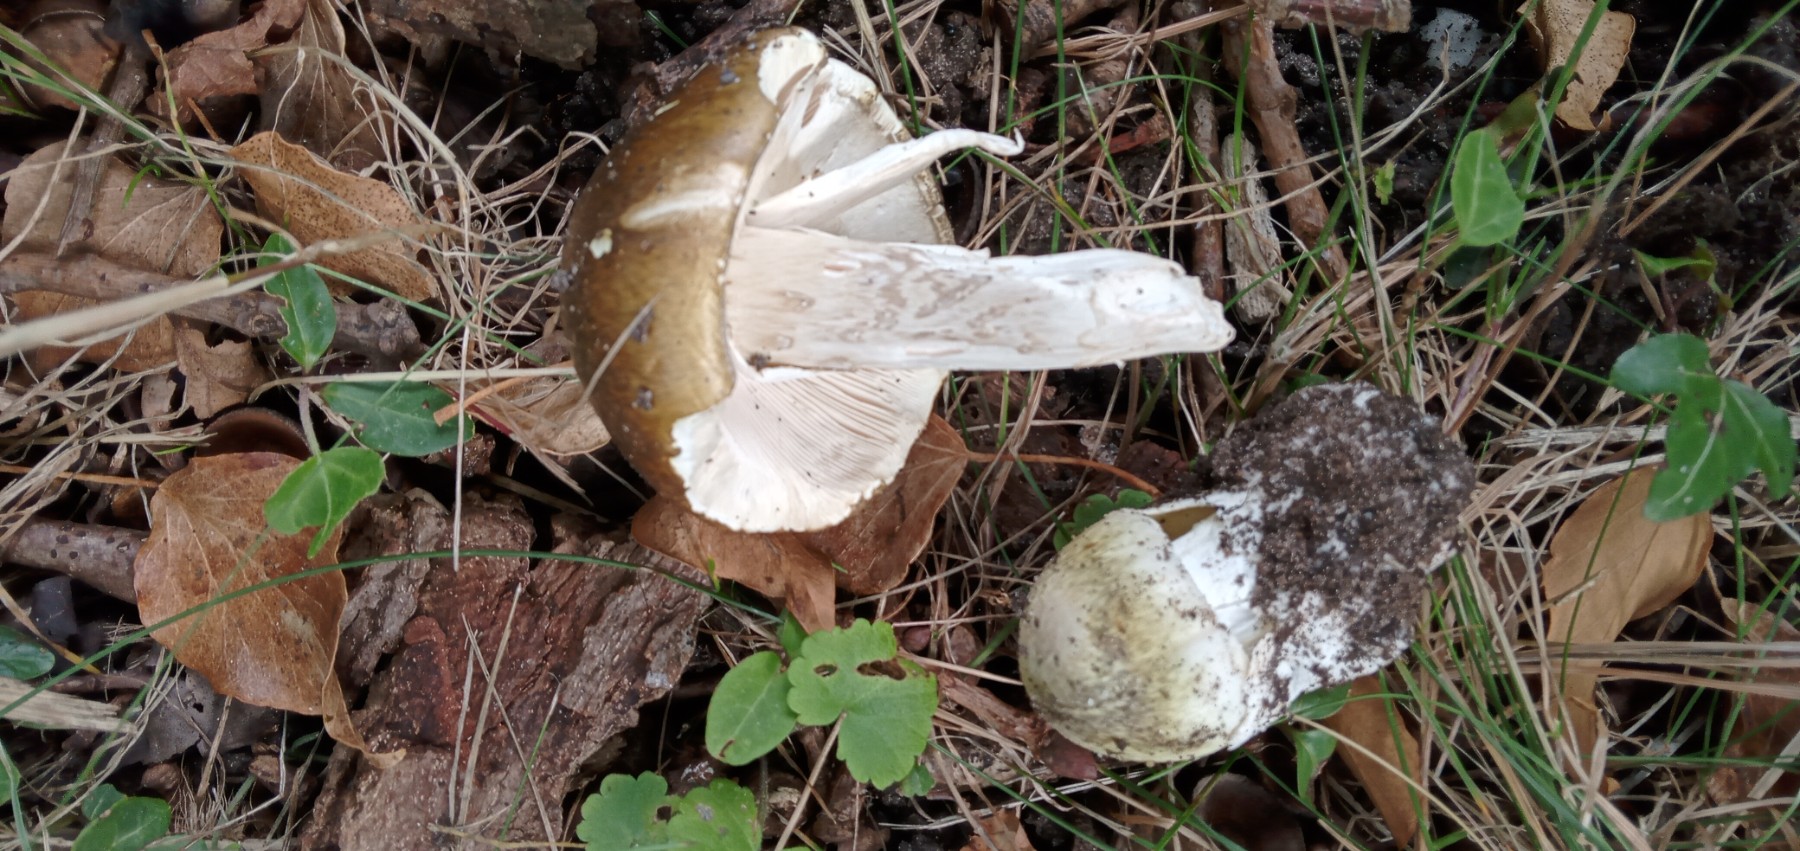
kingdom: Fungi
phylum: Basidiomycota
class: Agaricomycetes
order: Agaricales
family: Amanitaceae
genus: Amanita
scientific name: Amanita phalloides
